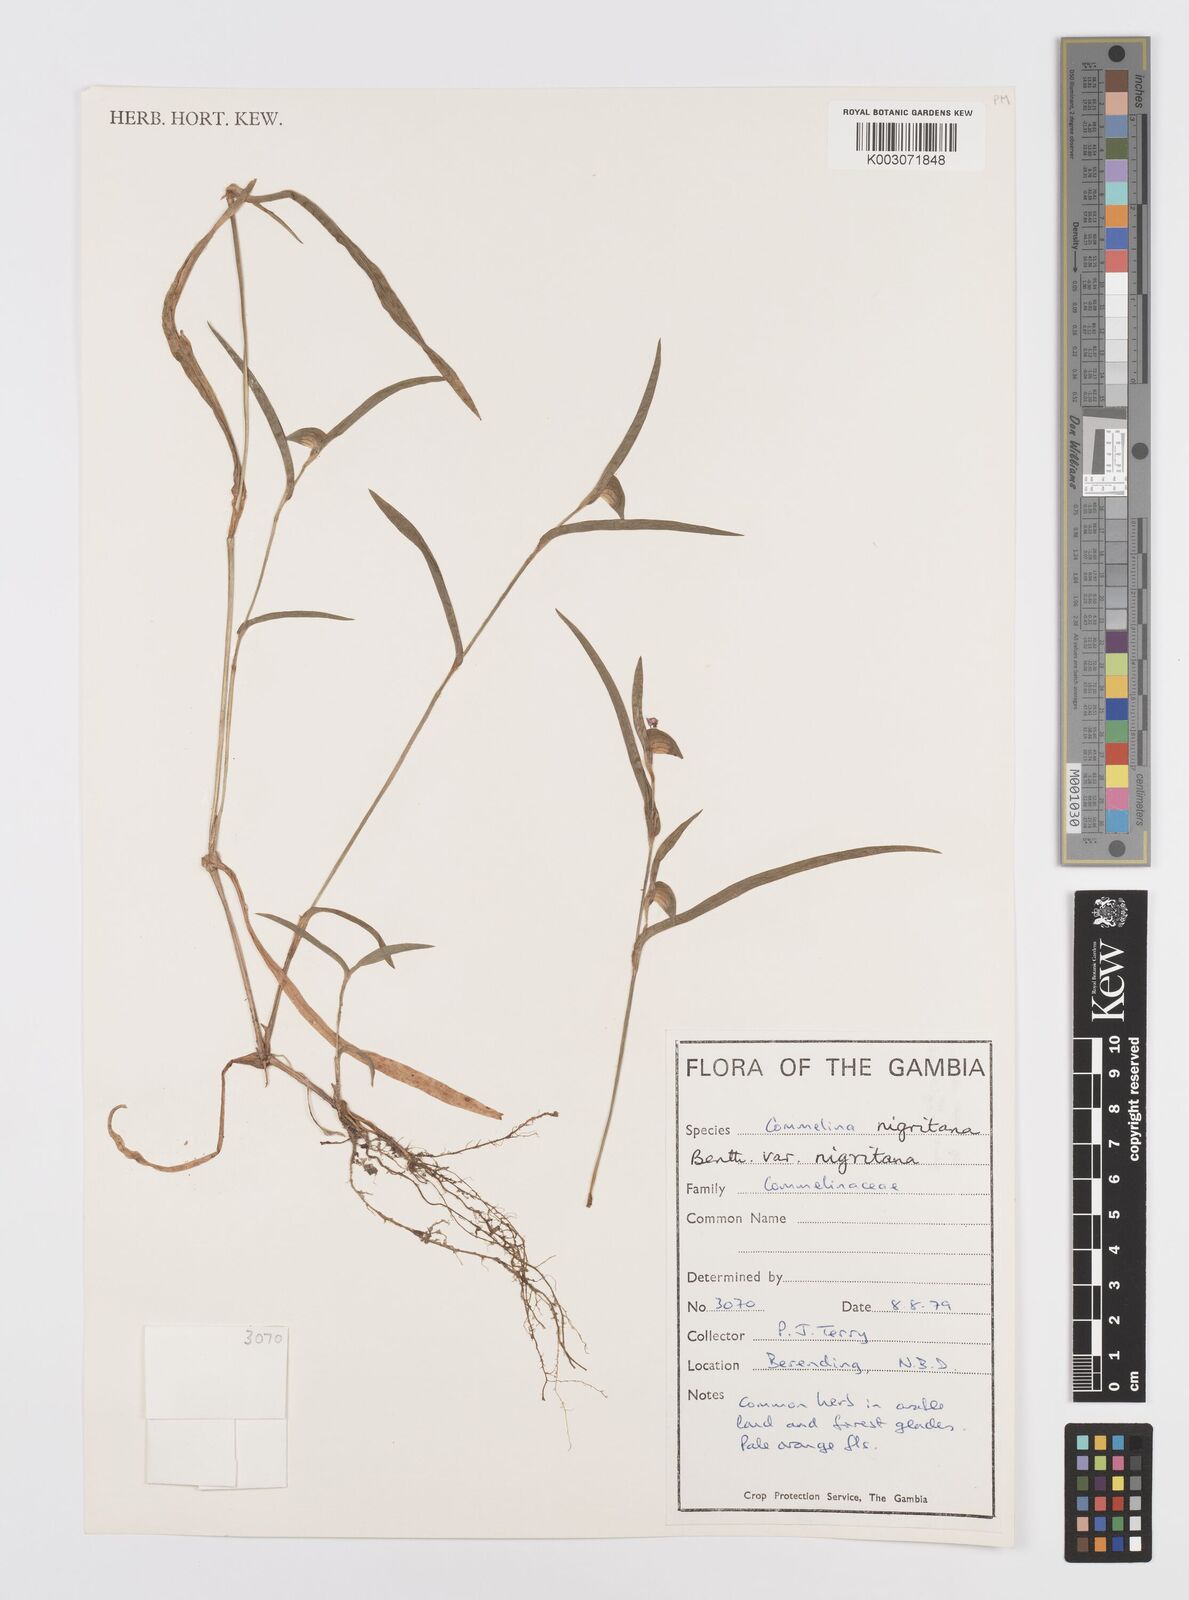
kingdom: Plantae
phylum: Tracheophyta
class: Liliopsida
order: Commelinales
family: Commelinaceae
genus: Commelina
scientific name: Commelina
